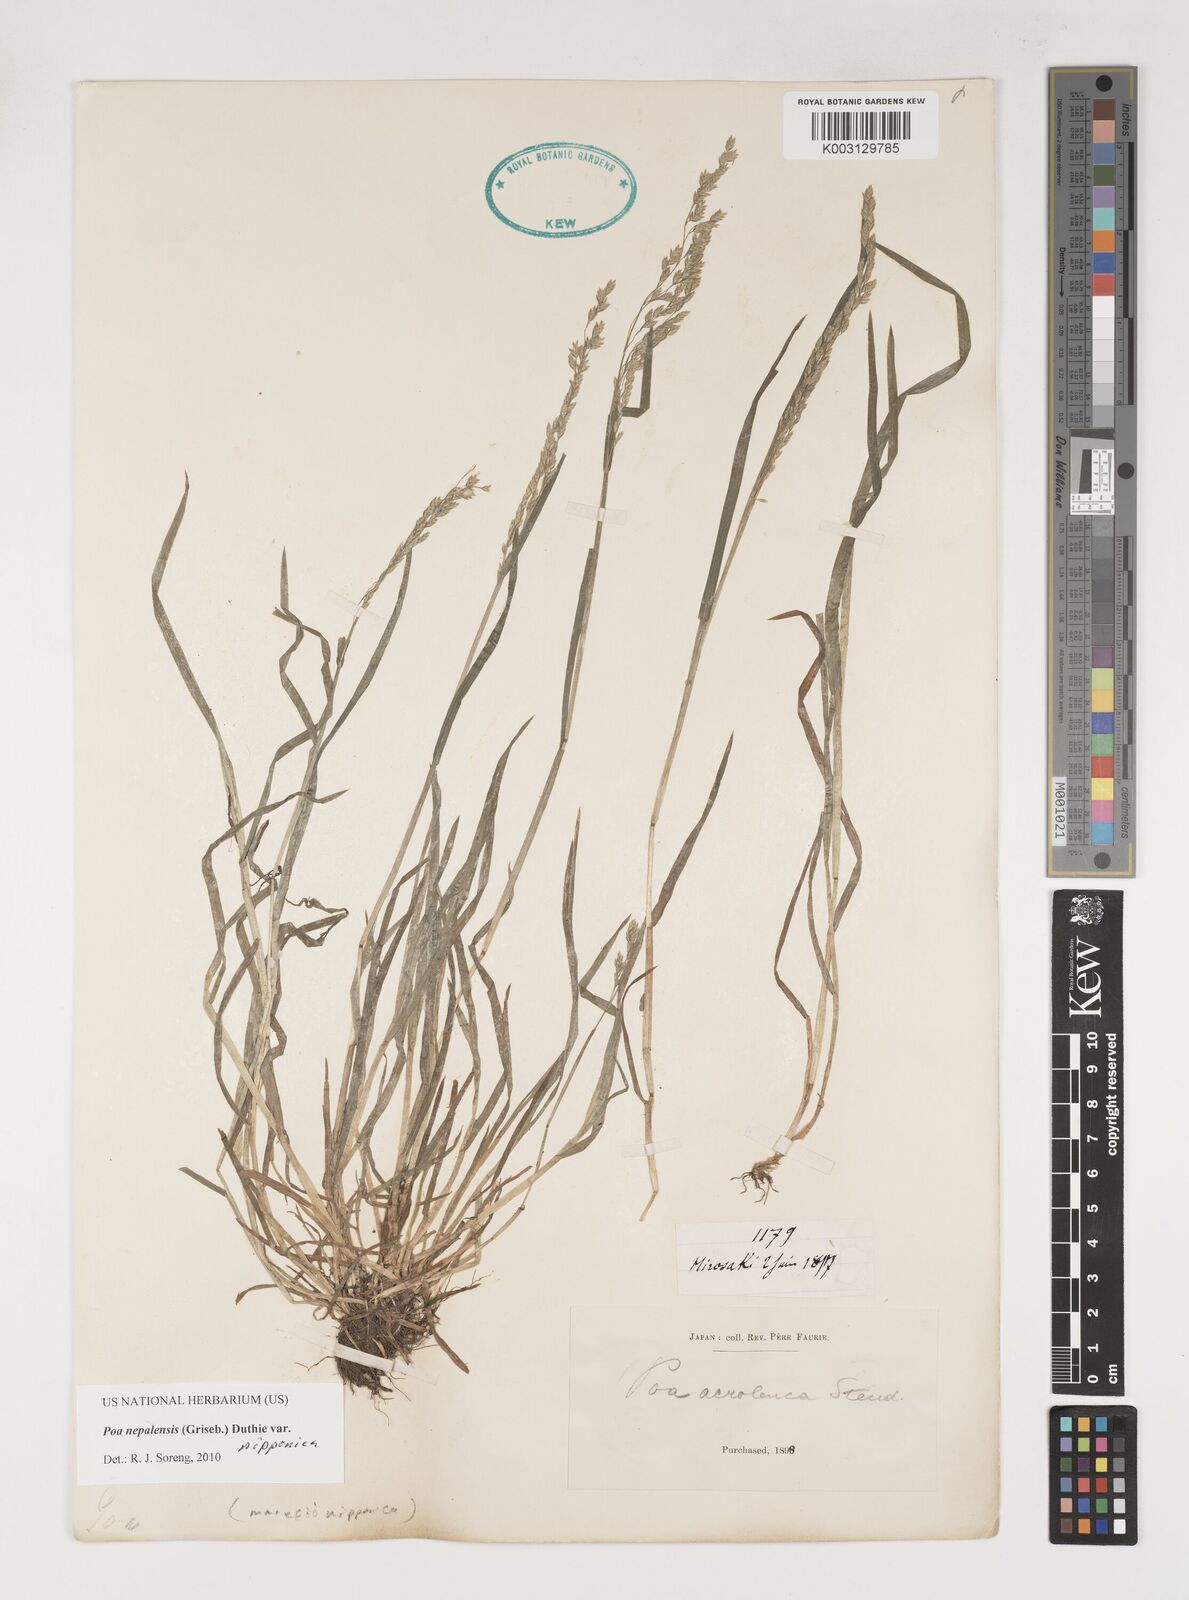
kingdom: Plantae
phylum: Tracheophyta
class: Liliopsida
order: Poales
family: Poaceae
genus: Poa
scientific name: Poa nepalensis
